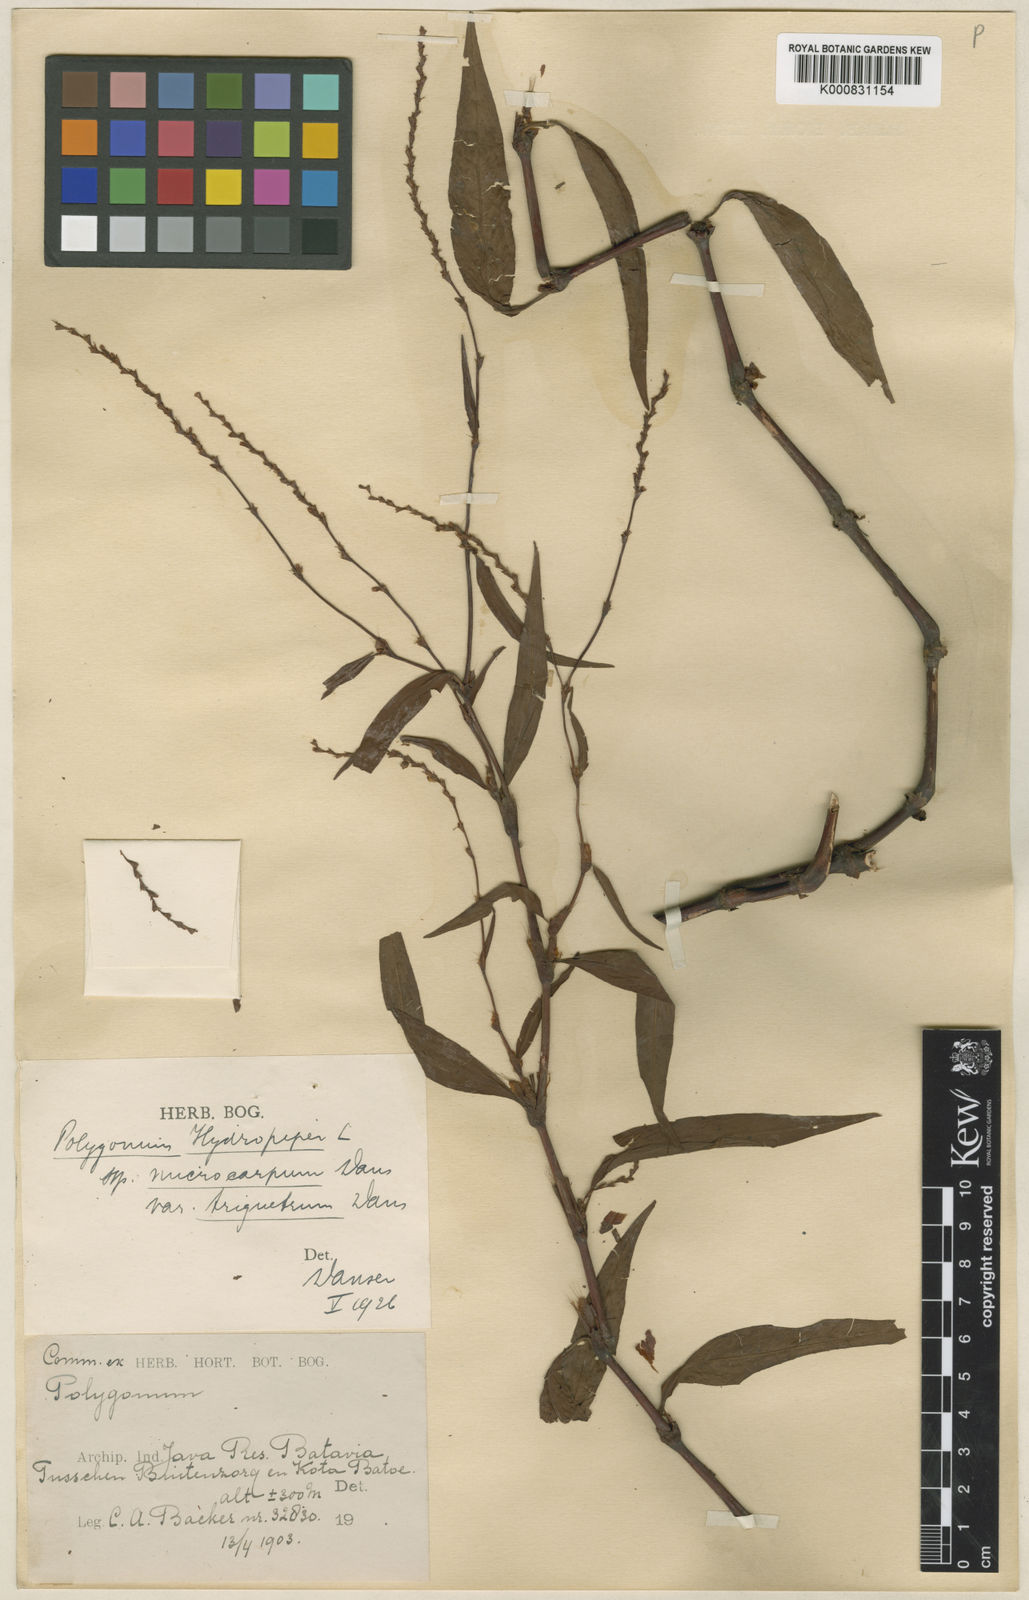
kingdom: Plantae
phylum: Tracheophyta
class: Magnoliopsida
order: Caryophyllales
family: Polygonaceae
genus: Persicaria
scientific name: Persicaria
